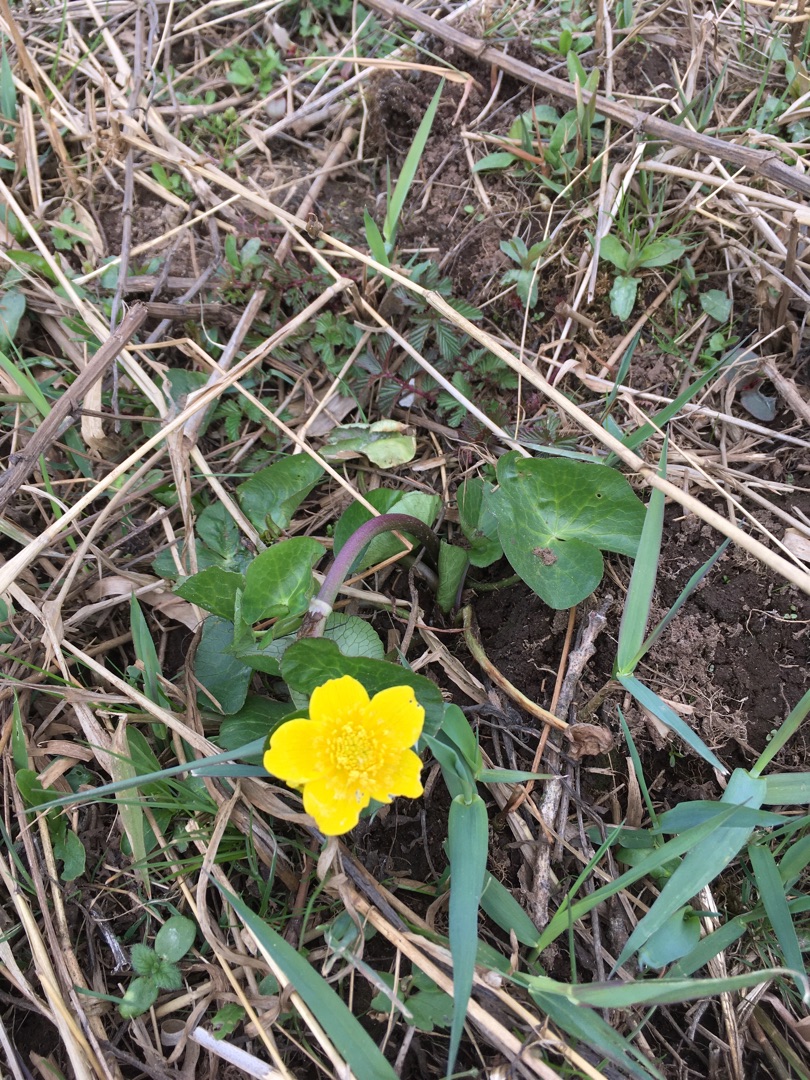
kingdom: Plantae
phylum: Tracheophyta
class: Magnoliopsida
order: Ranunculales
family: Ranunculaceae
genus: Caltha
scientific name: Caltha palustris
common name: Eng-kabbeleje
